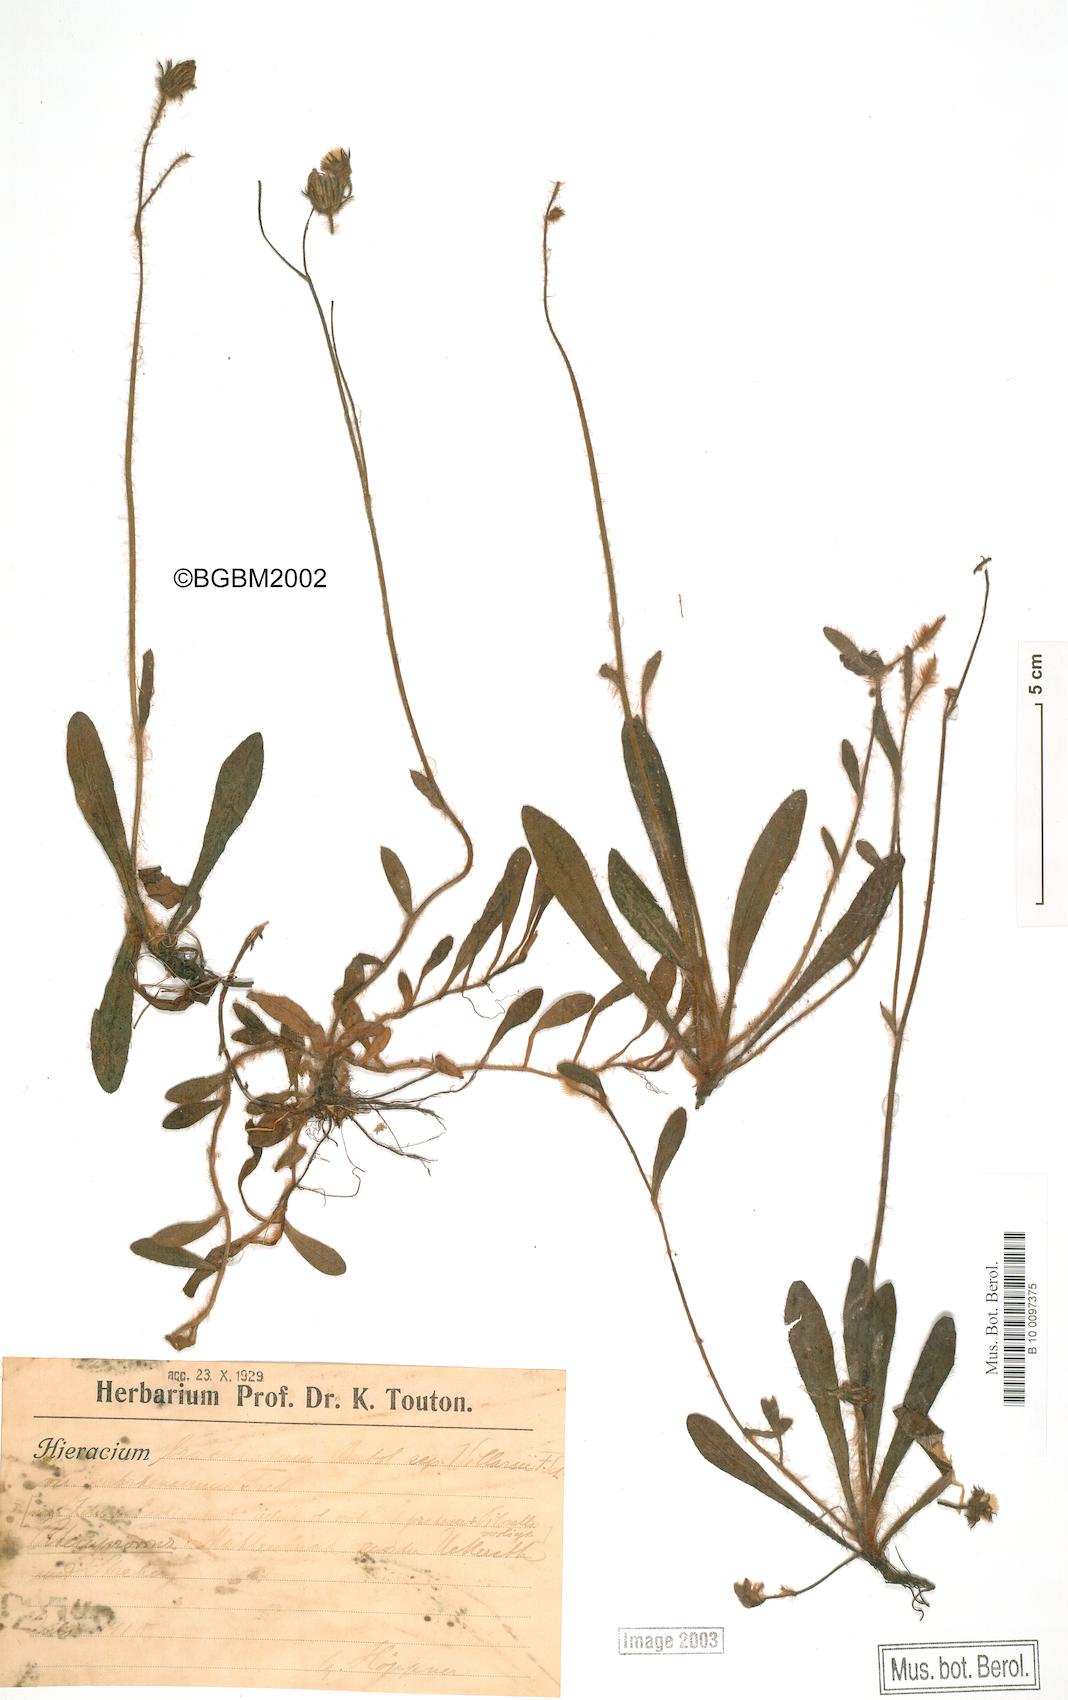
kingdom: Plantae
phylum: Tracheophyta
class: Magnoliopsida
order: Asterales
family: Asteraceae
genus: Pilosella
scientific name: Pilosella acutifolia
